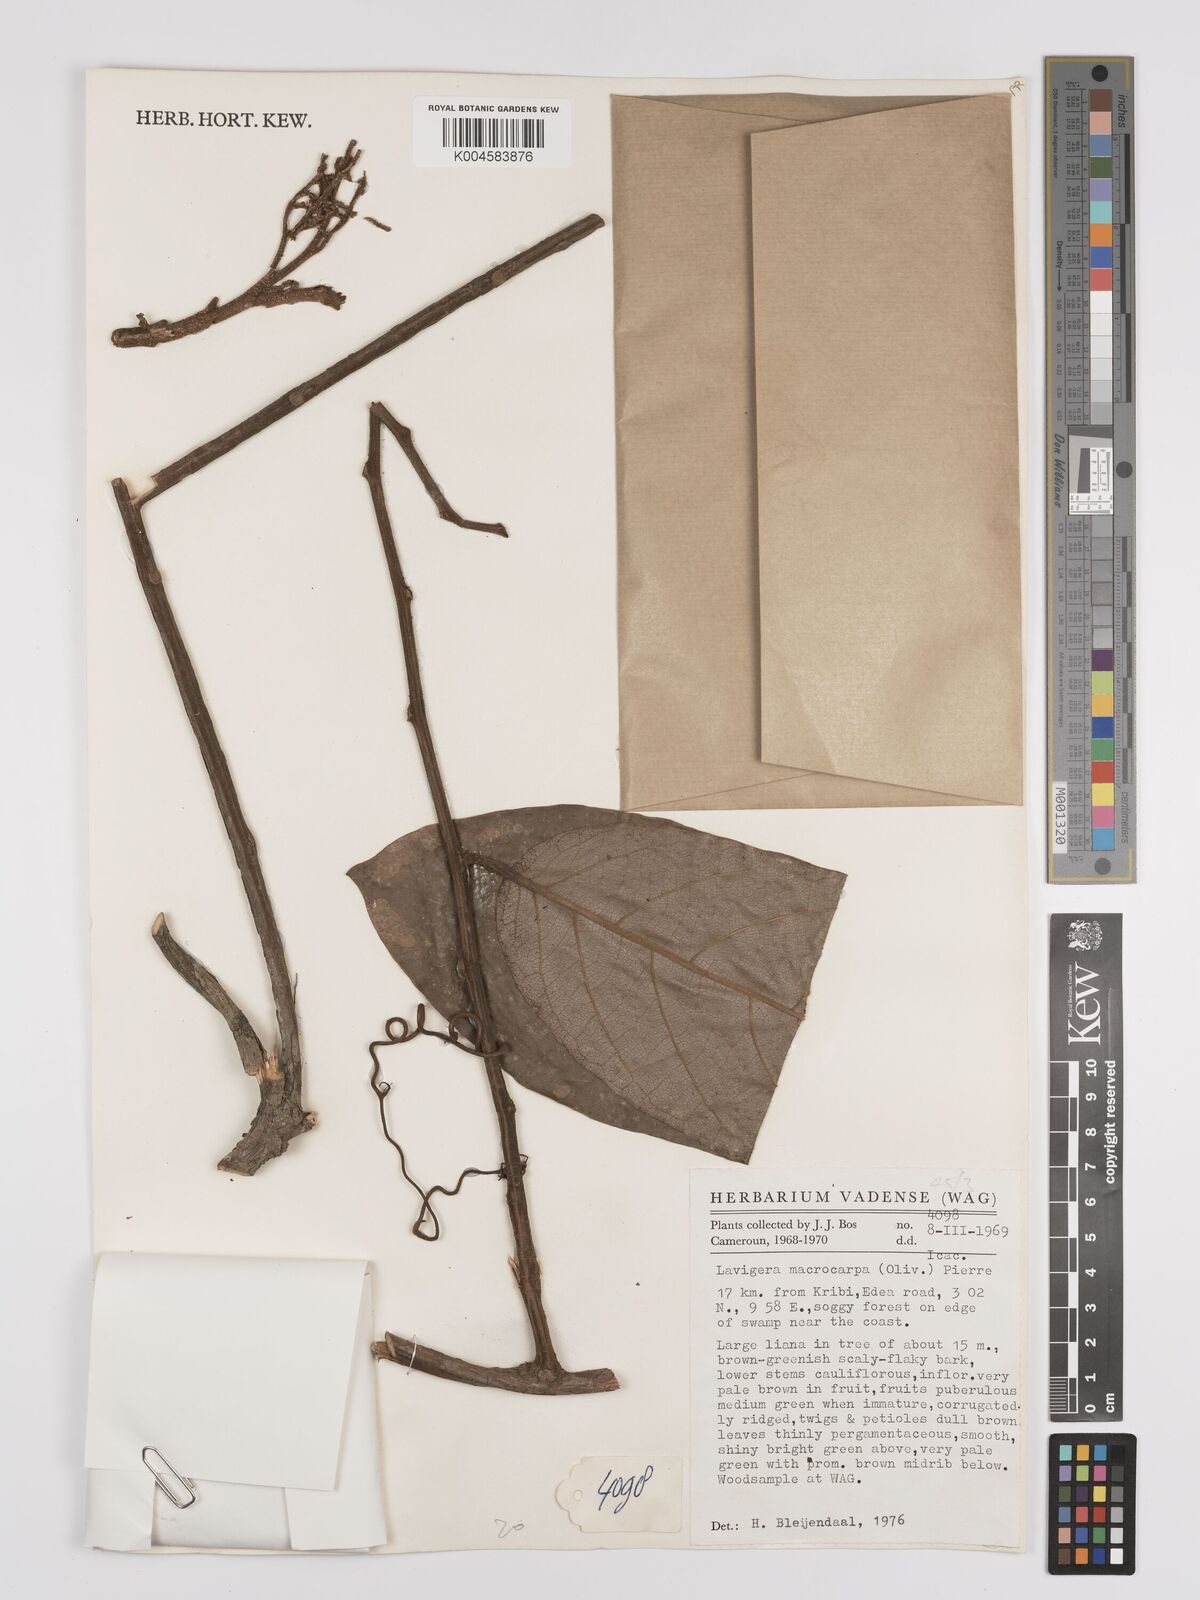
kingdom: Plantae
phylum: Tracheophyta
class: Magnoliopsida
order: Icacinales
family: Icacinaceae
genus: Lavigeria
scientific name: Lavigeria macrocarpa
